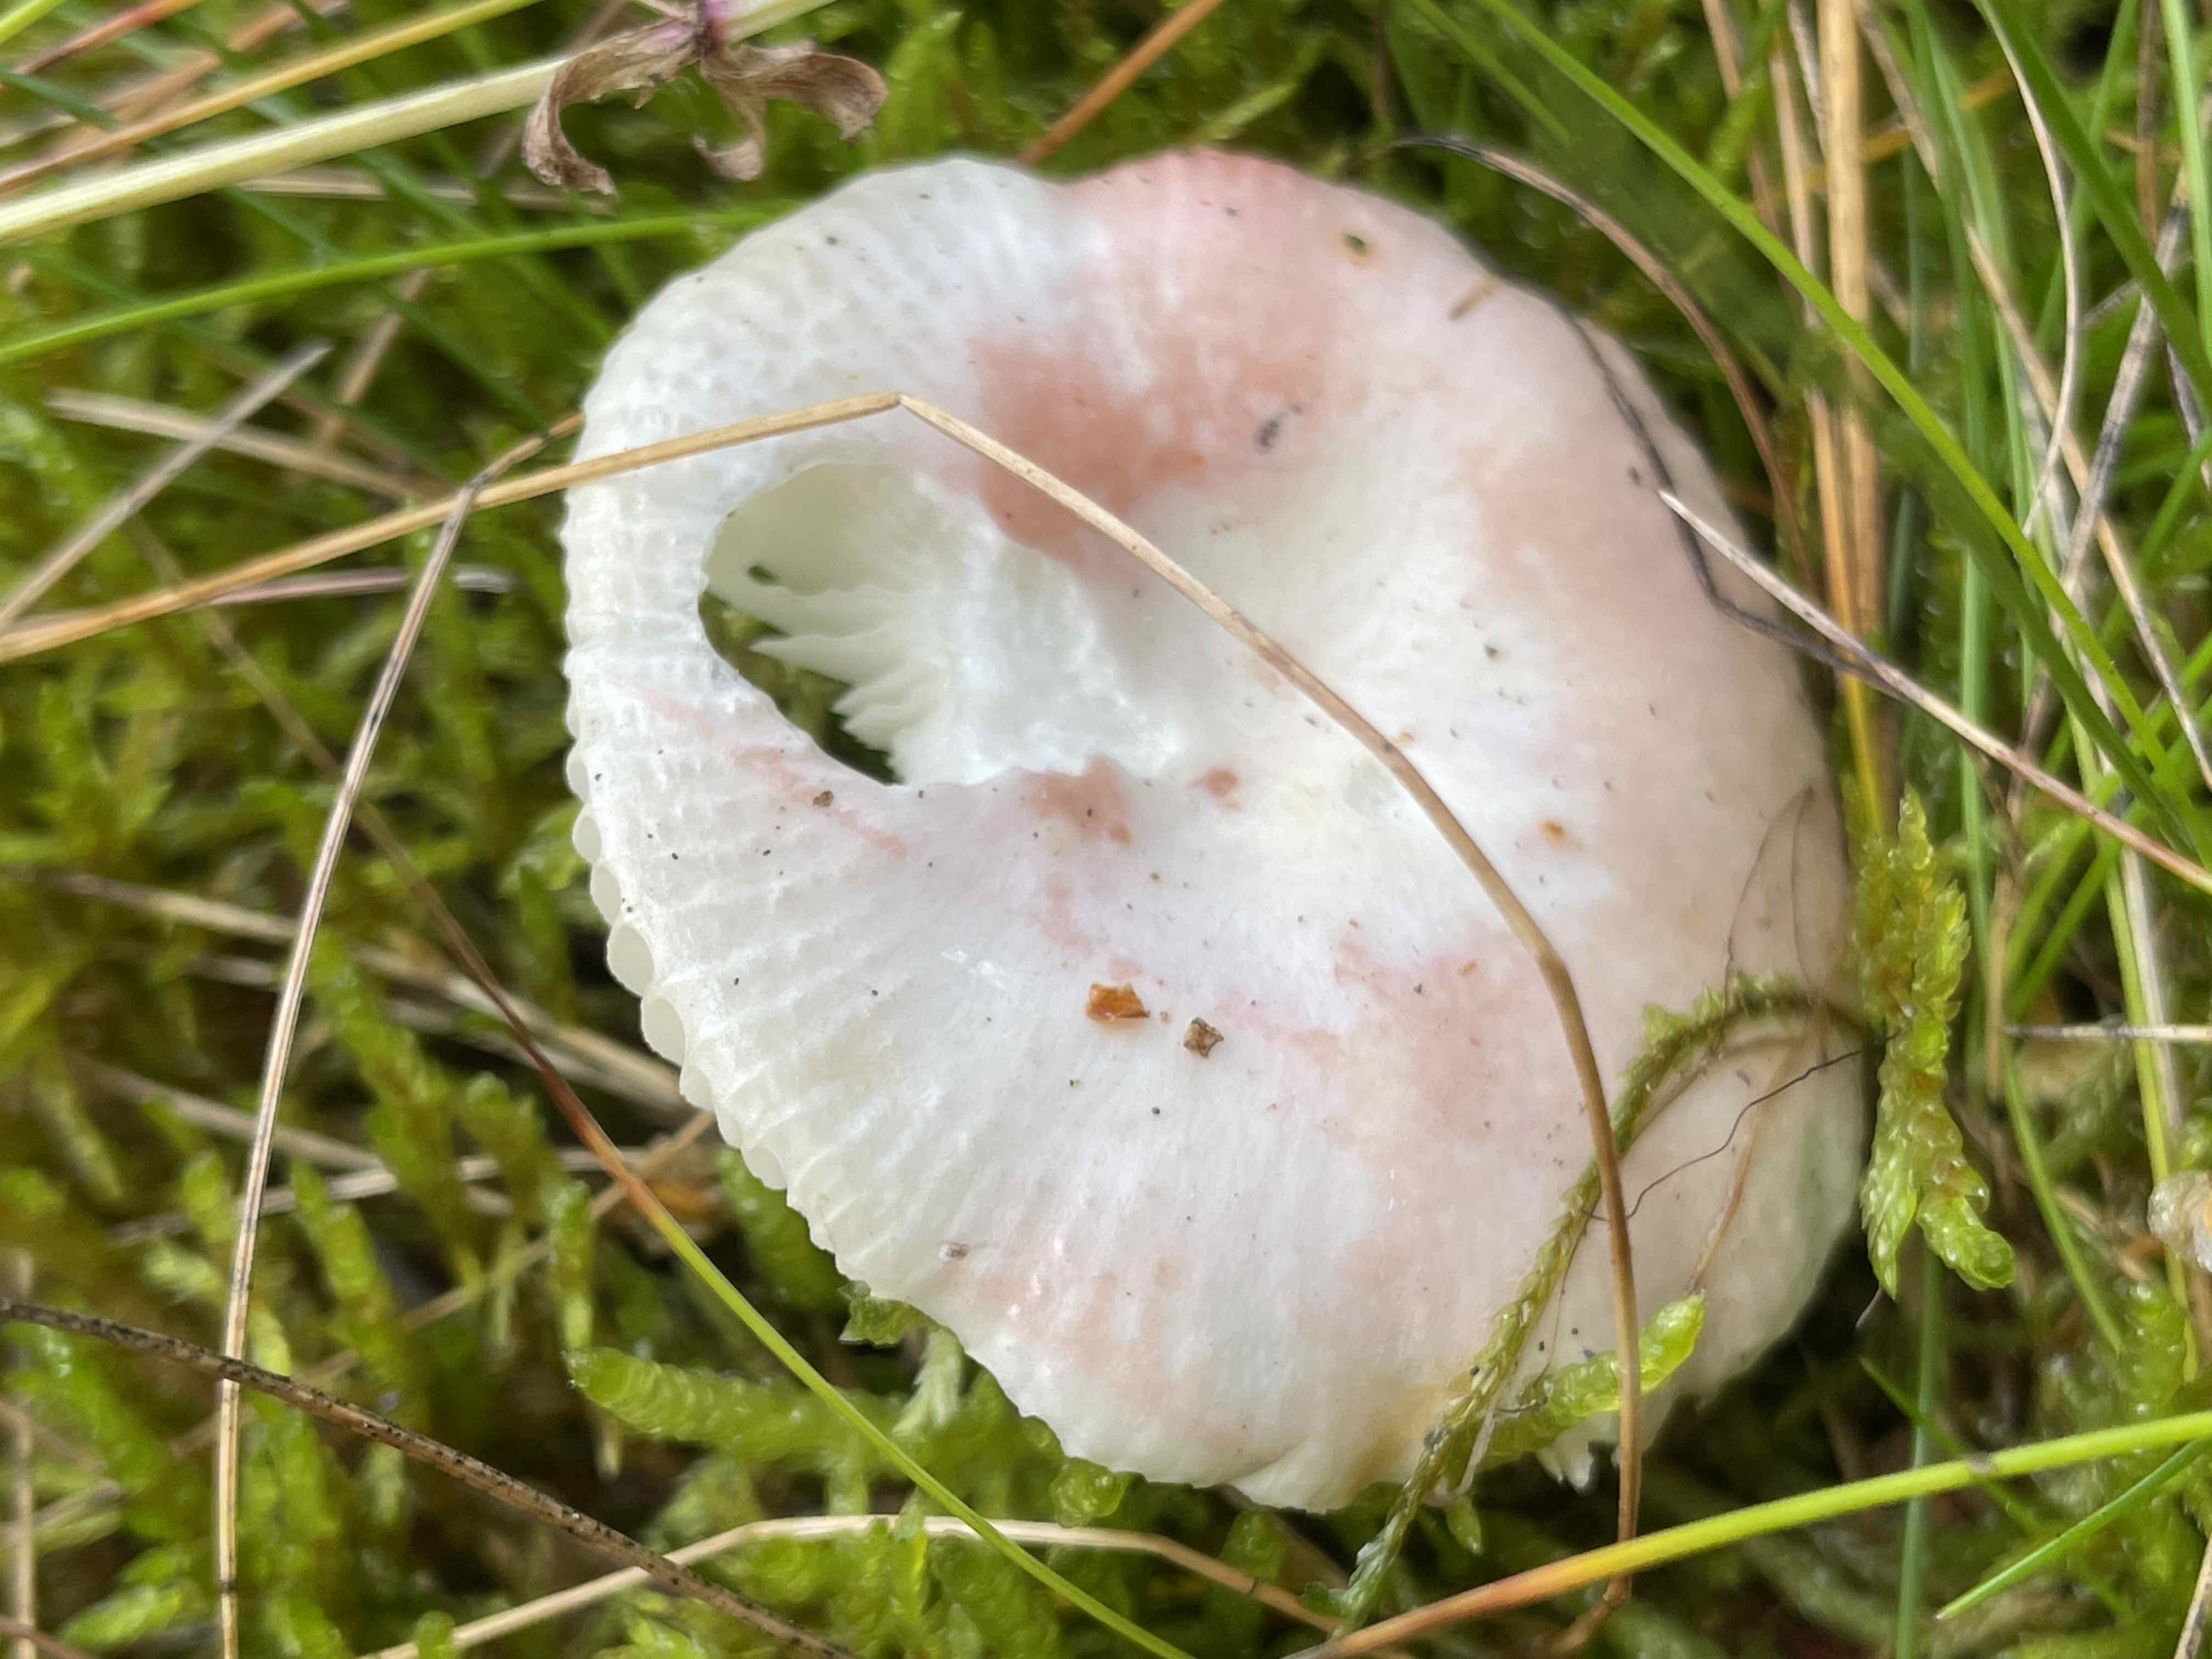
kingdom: Fungi
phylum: Basidiomycota
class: Agaricomycetes
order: Russulales
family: Russulaceae
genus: Russula
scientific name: Russula betularum
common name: bleg gift-skørhat
